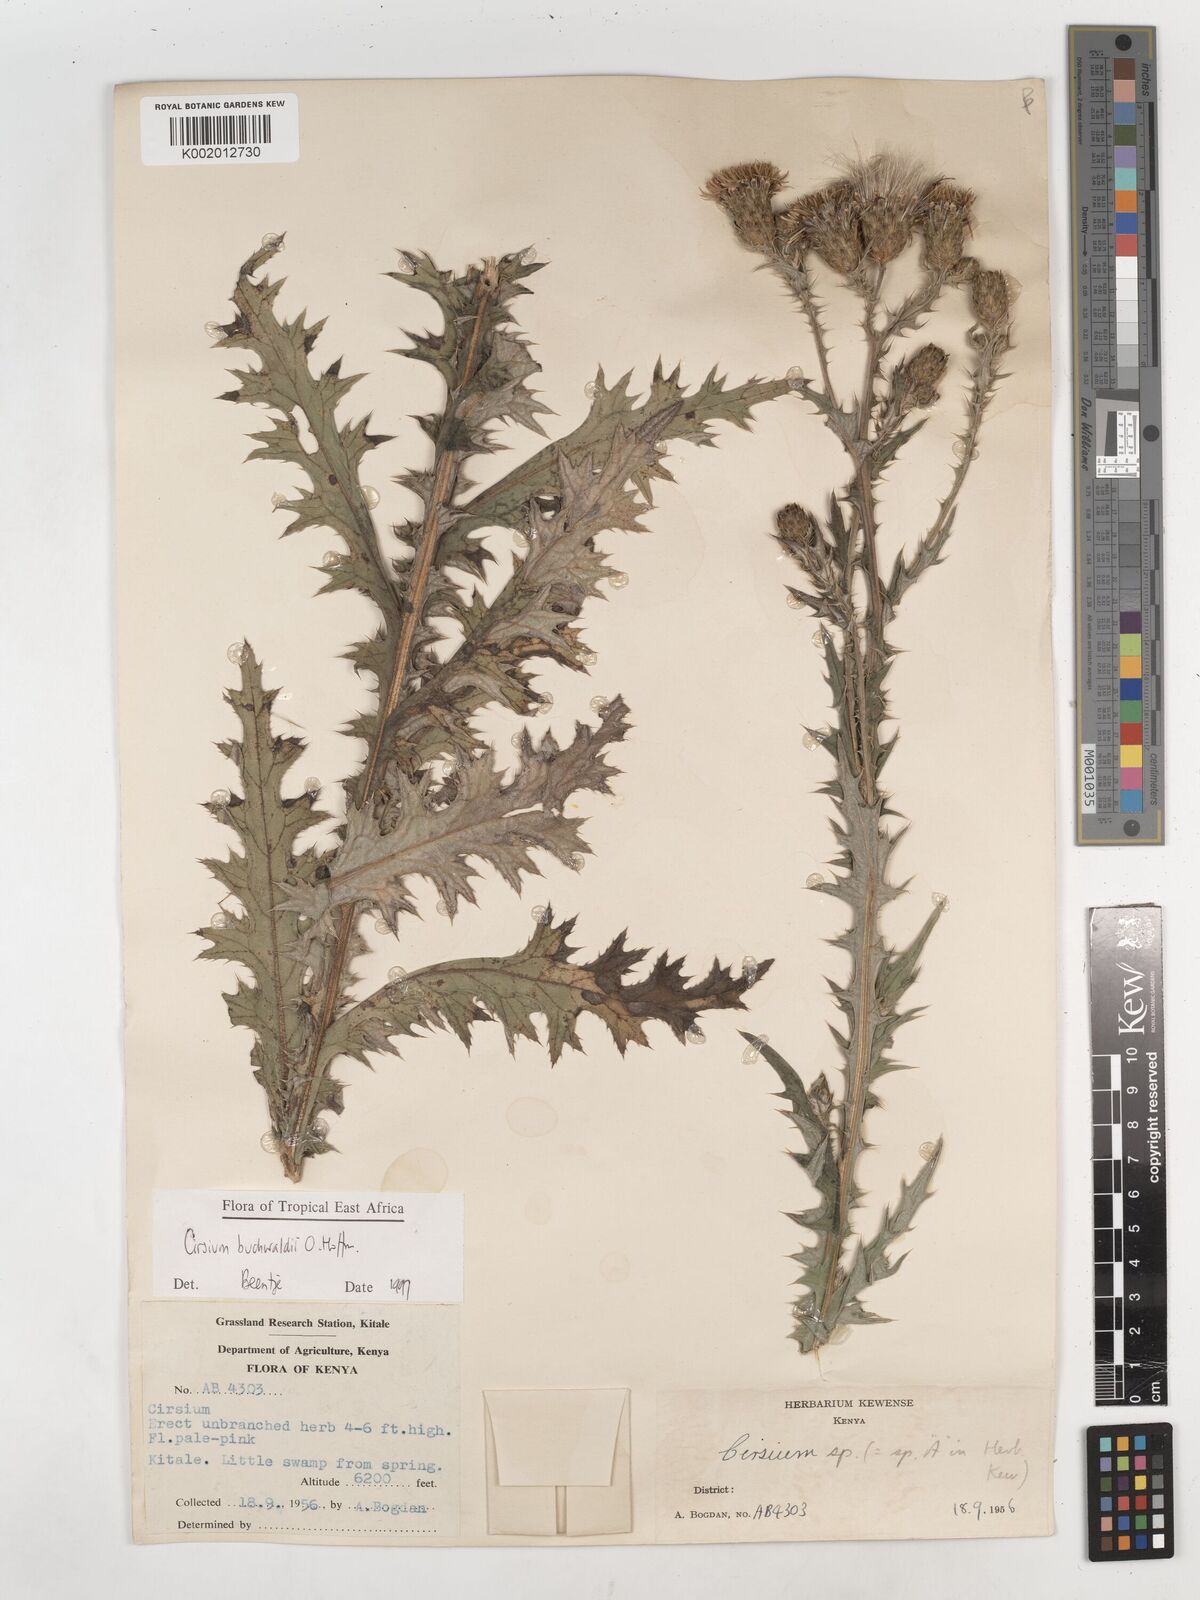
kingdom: Plantae
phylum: Tracheophyta
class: Magnoliopsida
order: Asterales
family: Asteraceae
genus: Cirsium
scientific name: Cirsium buchwaldii
